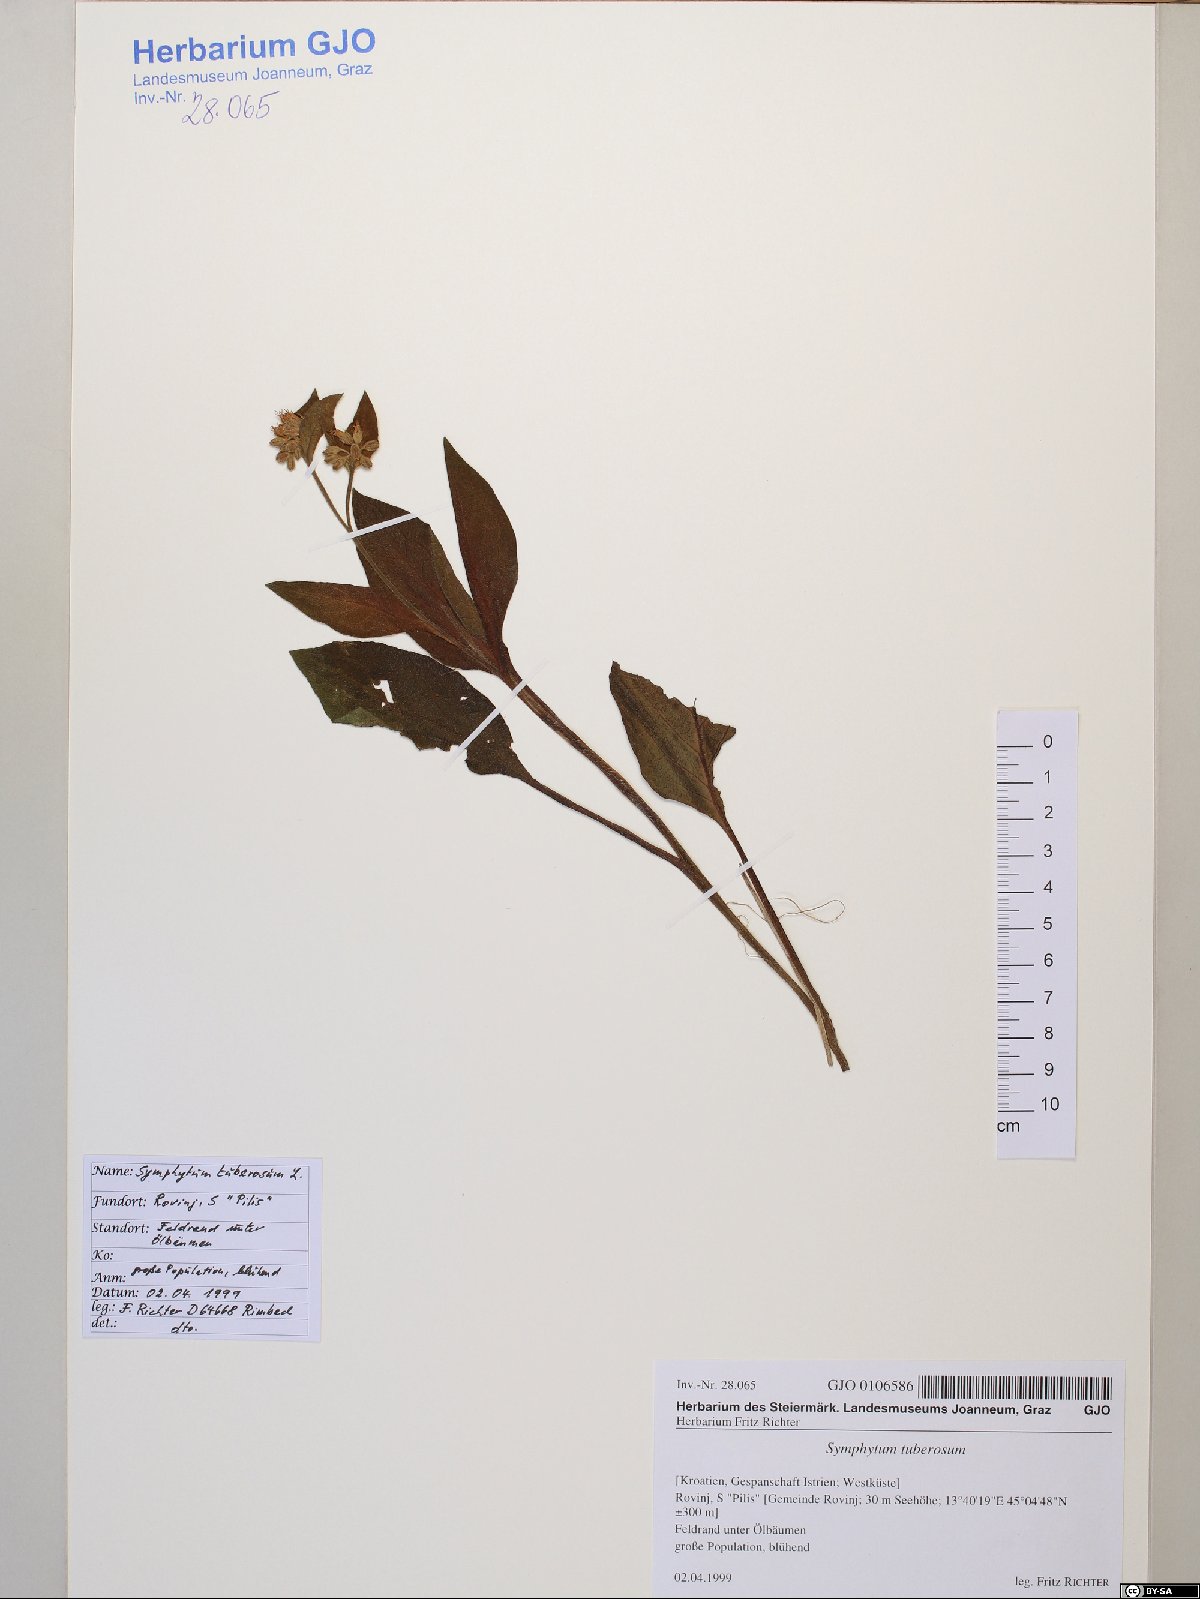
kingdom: Plantae
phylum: Tracheophyta
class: Magnoliopsida
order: Boraginales
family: Boraginaceae
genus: Symphytum
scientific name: Symphytum bulbosum
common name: Bulbous comfrey
